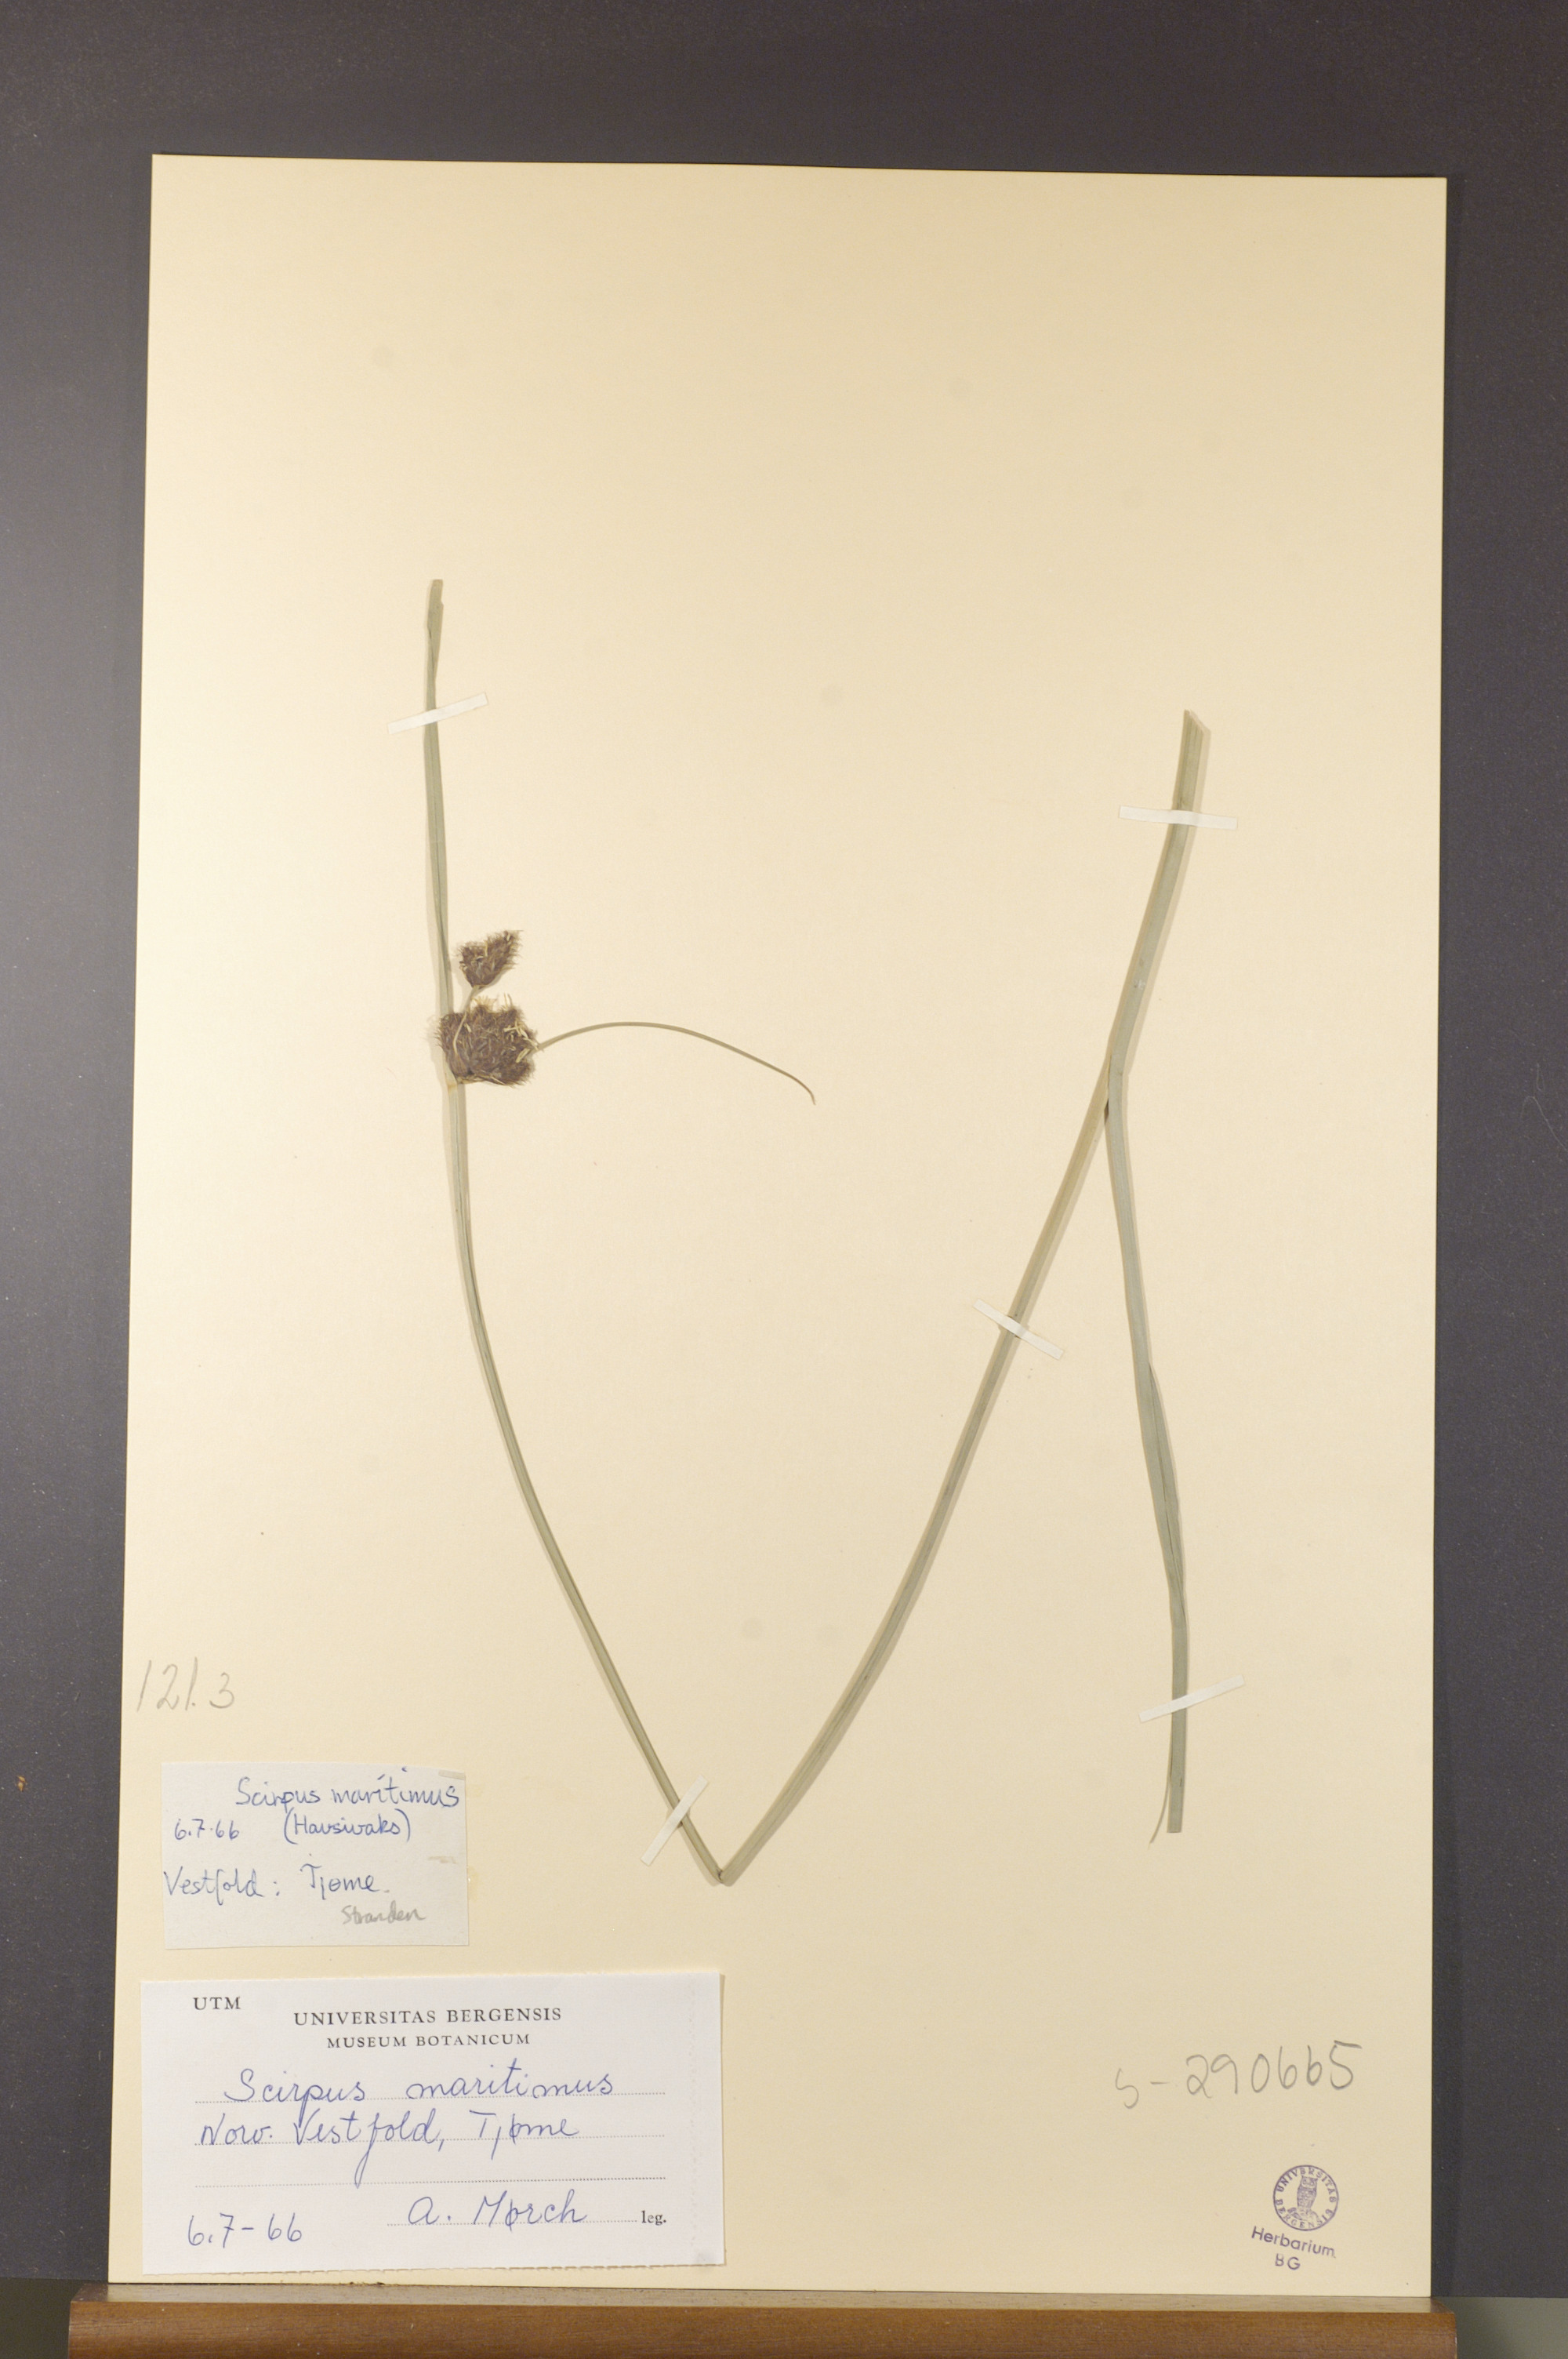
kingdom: Plantae
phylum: Tracheophyta
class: Liliopsida
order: Poales
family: Cyperaceae
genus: Bolboschoenus
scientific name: Bolboschoenus maritimus
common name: Sea club-rush
